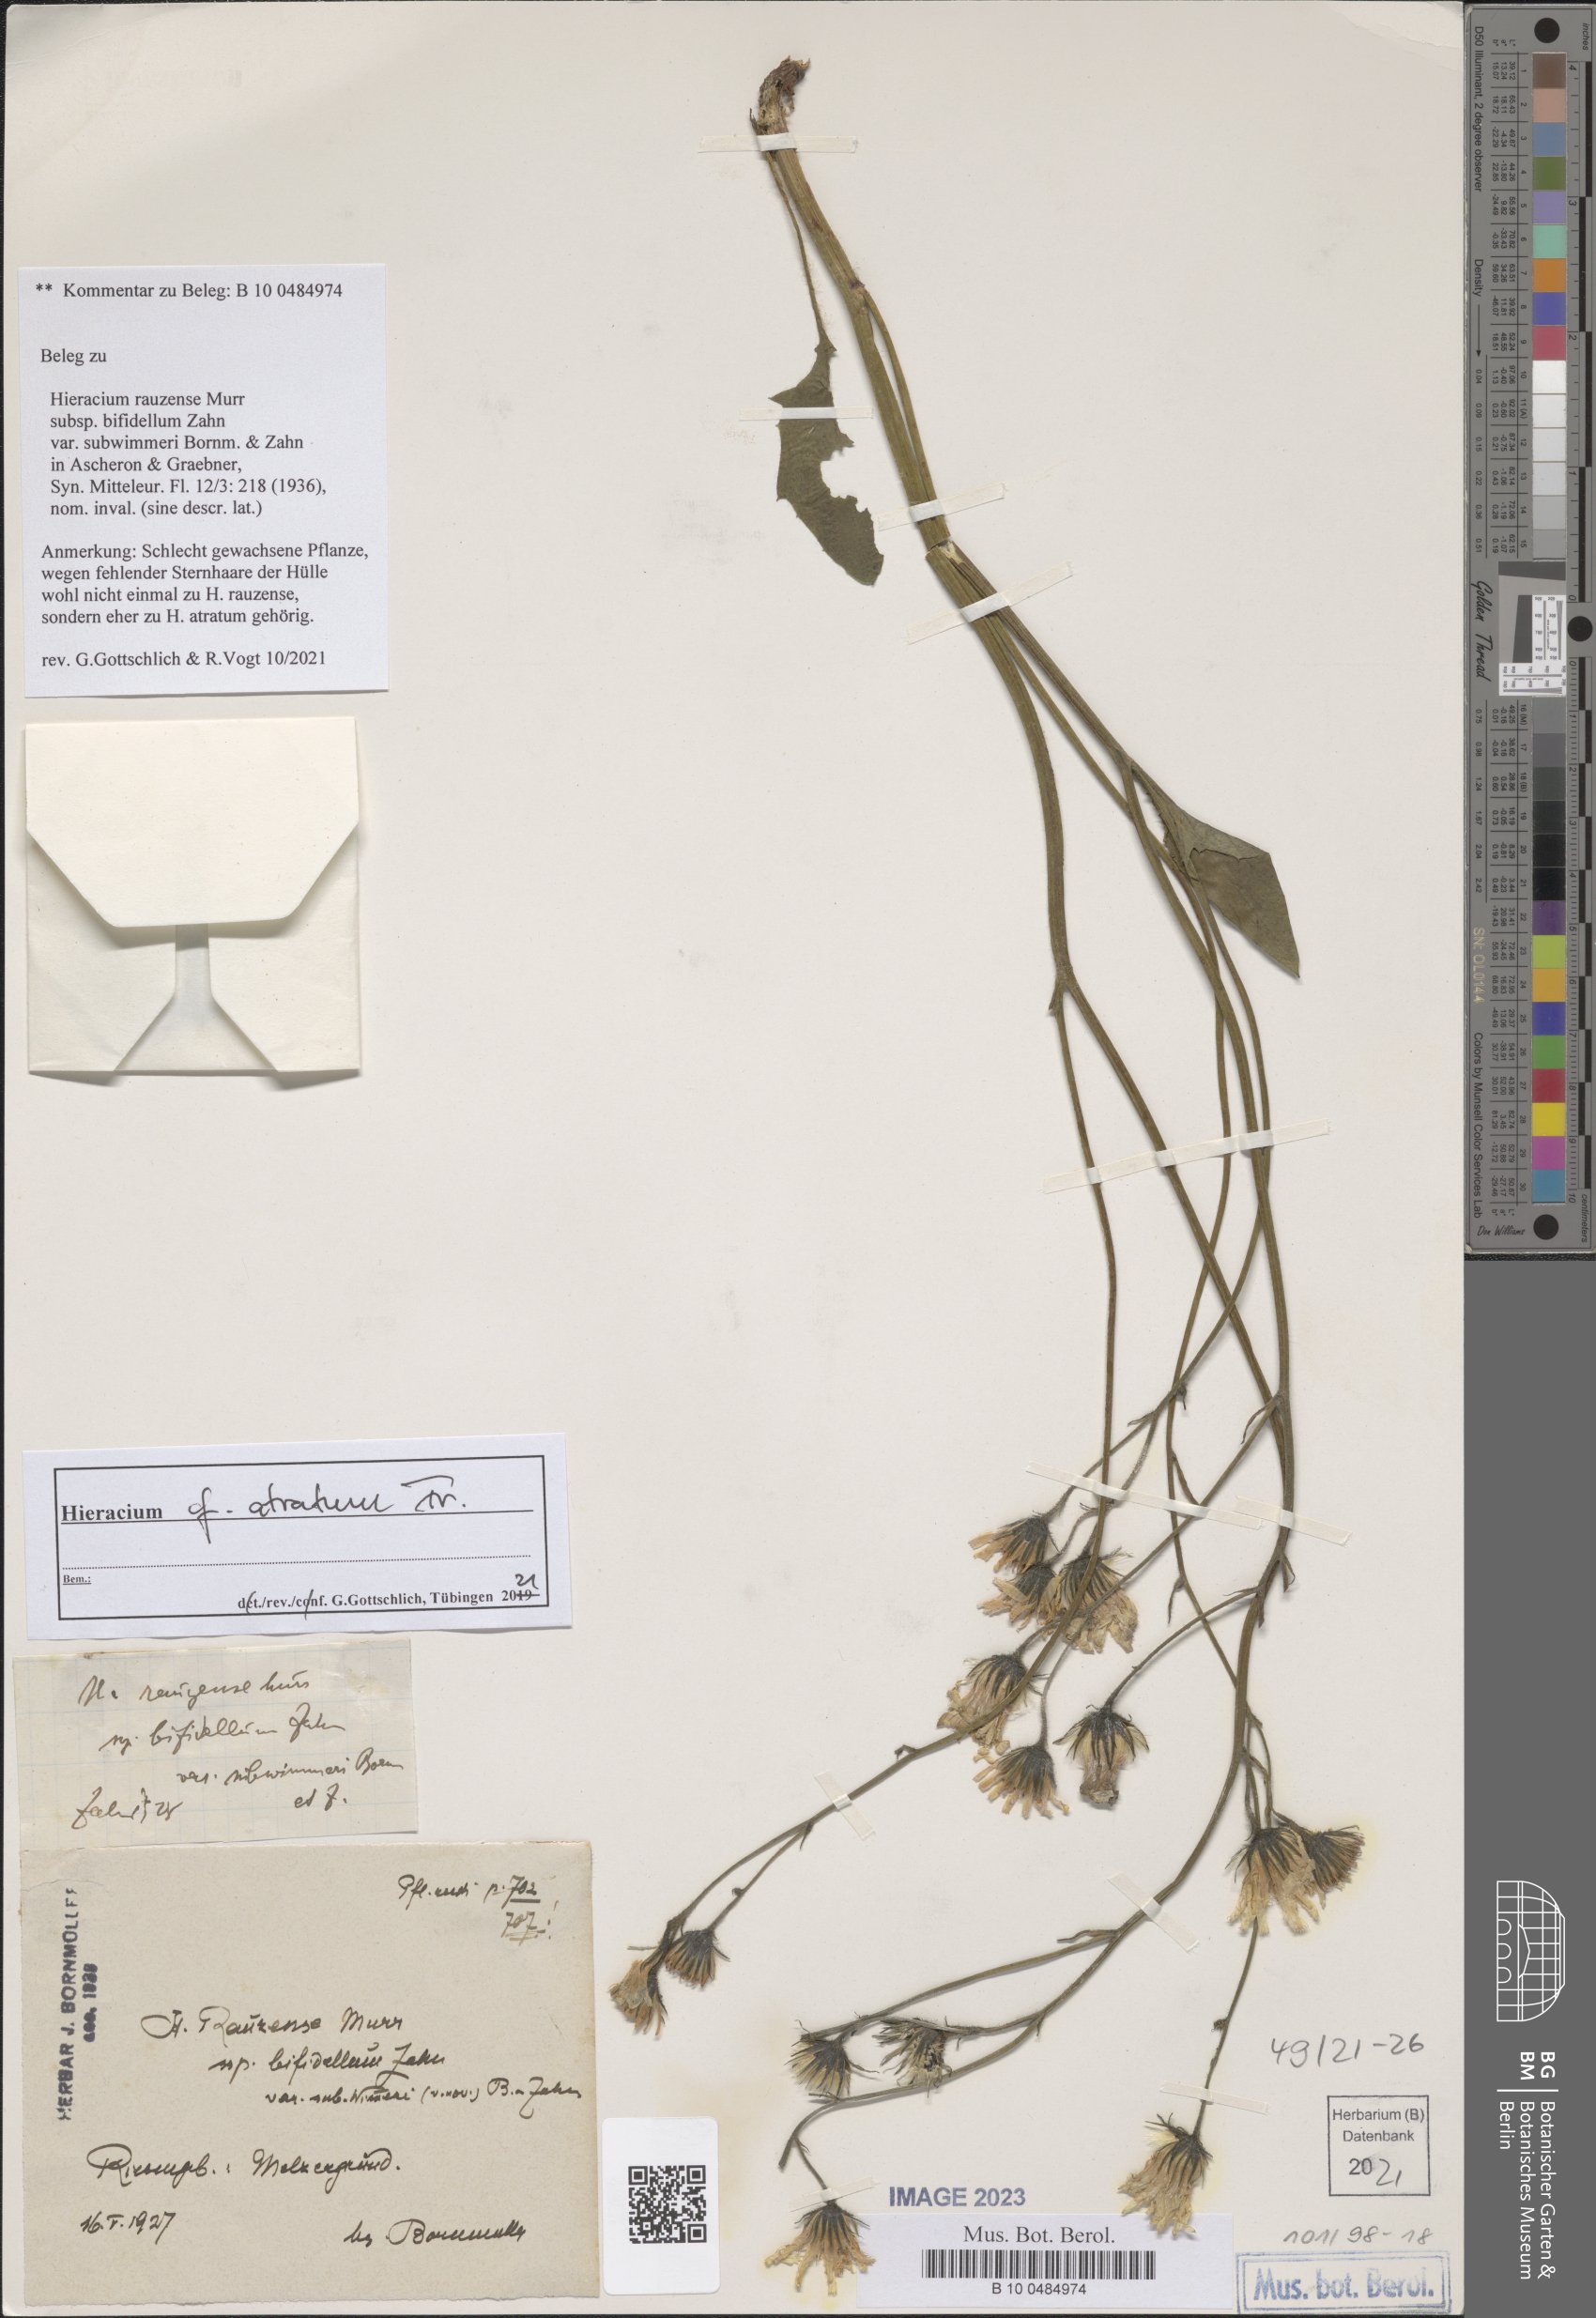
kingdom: Plantae
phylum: Tracheophyta
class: Magnoliopsida
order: Asterales
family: Asteraceae
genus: Hieracium
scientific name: Hieracium atratum
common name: Polar hawkweed
